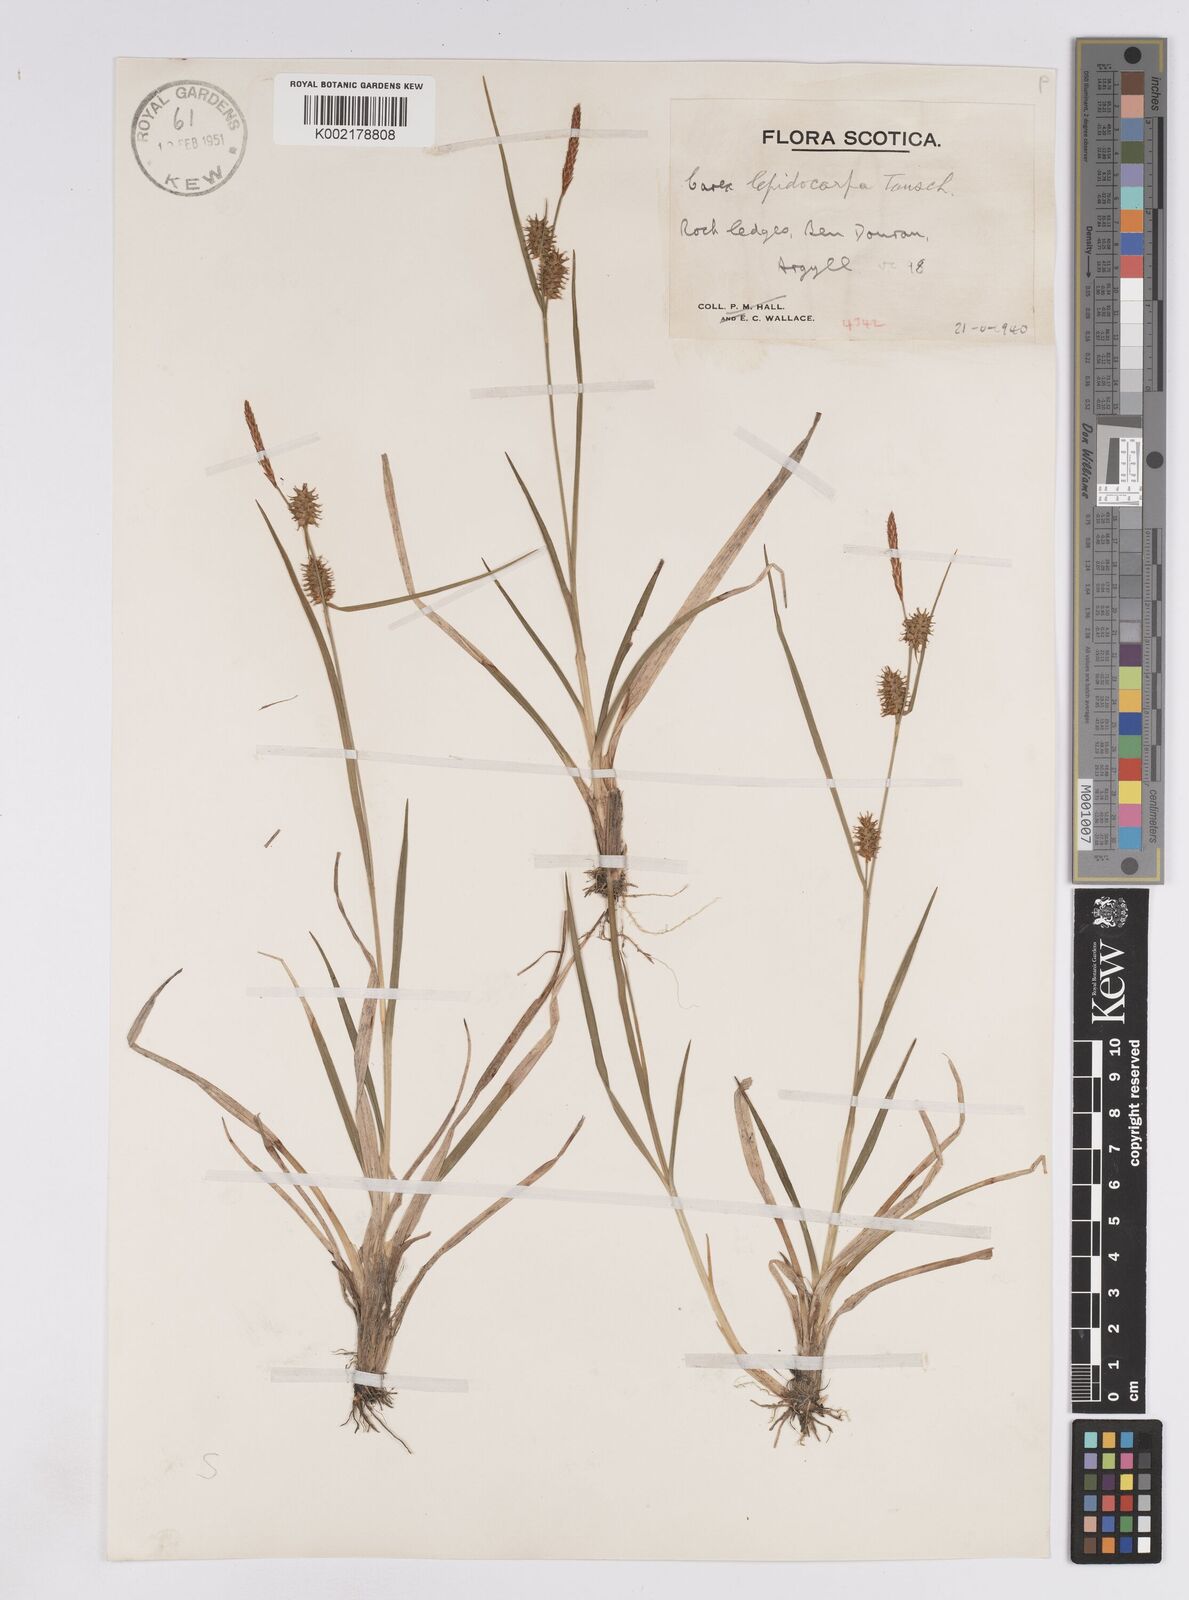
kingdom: Plantae
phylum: Tracheophyta
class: Liliopsida
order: Poales
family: Cyperaceae
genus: Carex
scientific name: Carex lepidocarpa
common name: Long-stalked yellow-sedge
